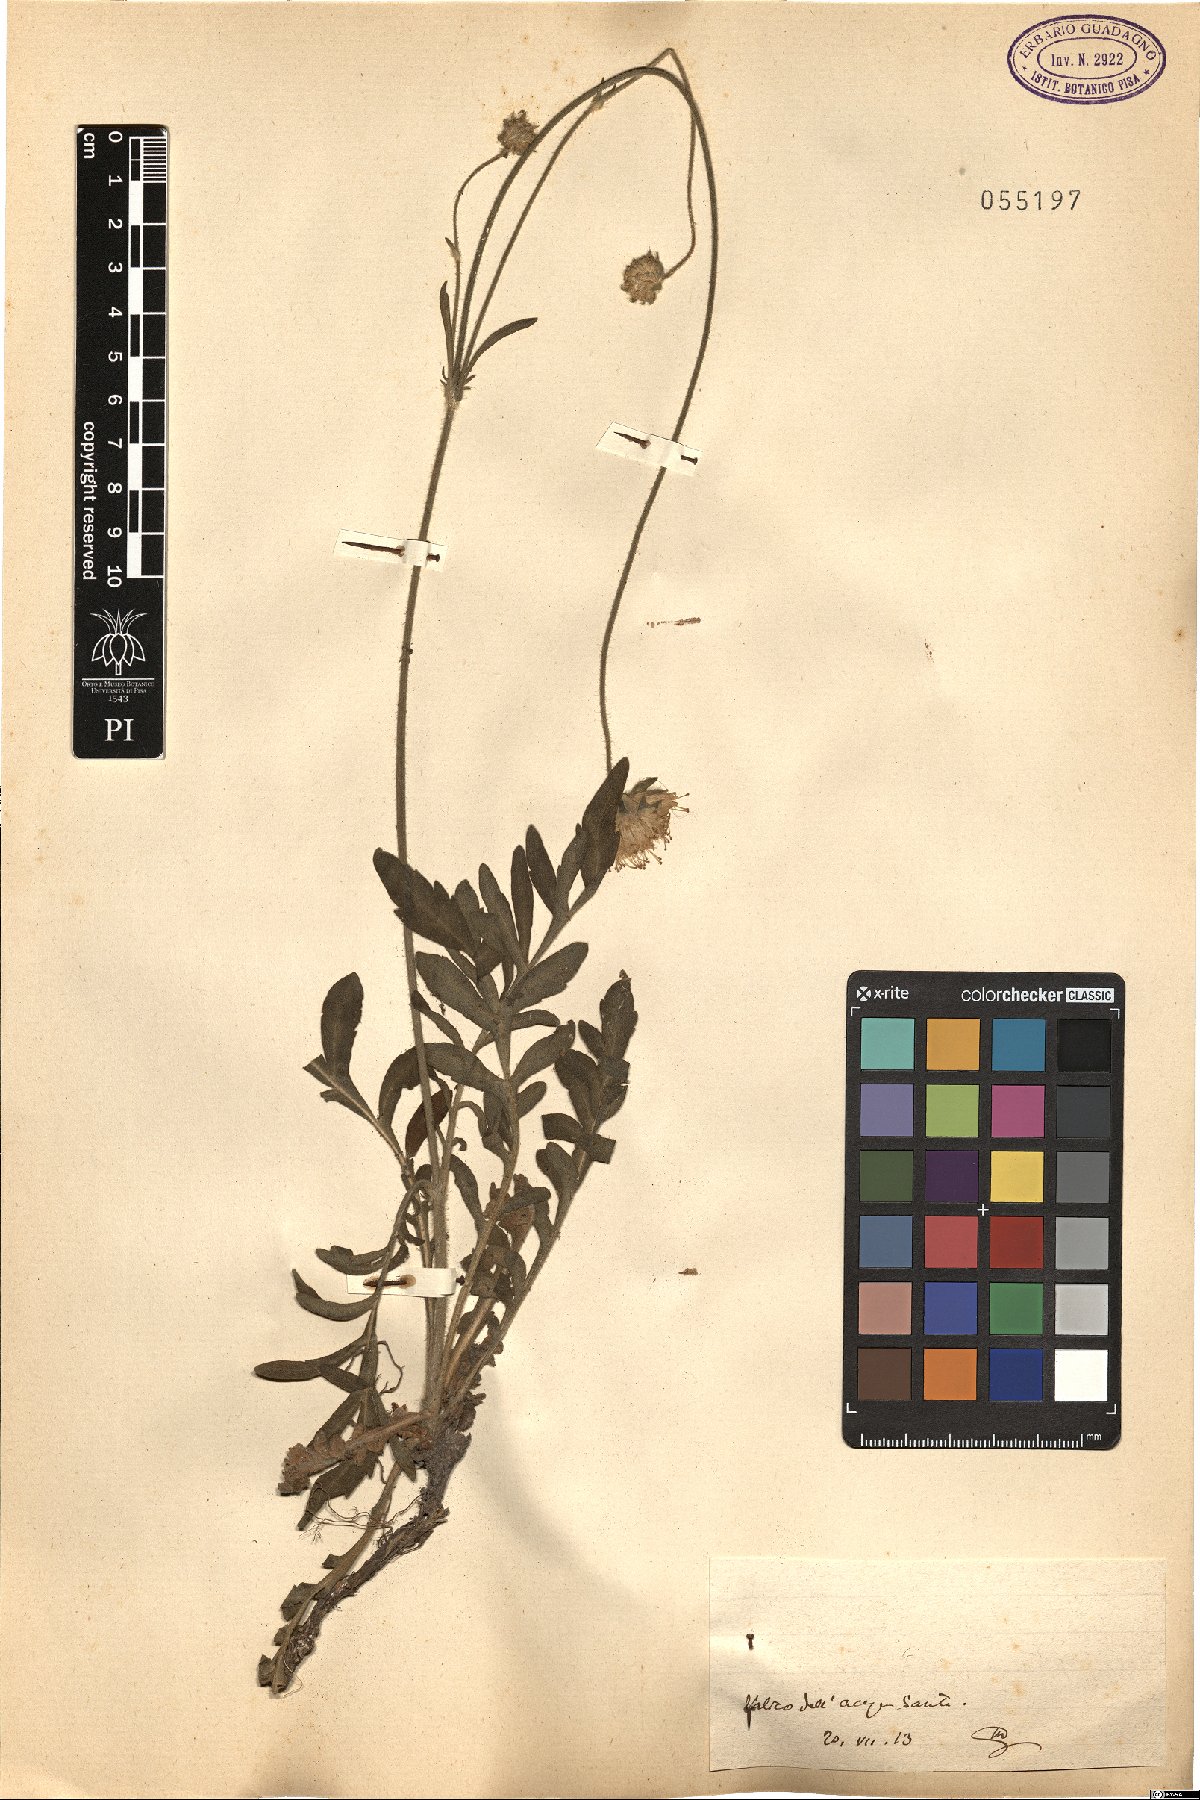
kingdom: Plantae
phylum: Tracheophyta
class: Magnoliopsida
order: Dipsacales
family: Caprifoliaceae
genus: Knautia
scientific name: Knautia
